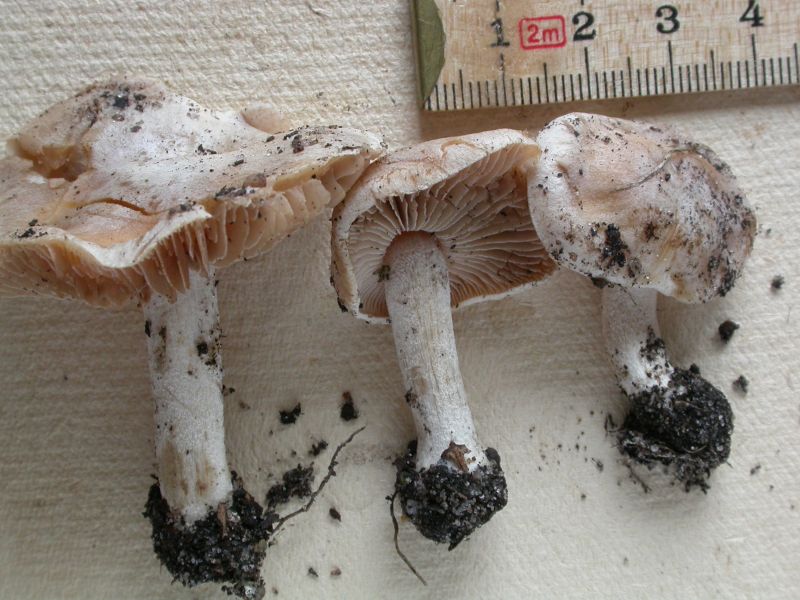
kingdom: Fungi
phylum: Basidiomycota
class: Agaricomycetes
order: Agaricales
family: Hymenogastraceae
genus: Hebeloma
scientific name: Hebeloma leucosarx
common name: højstokket tåreblad
